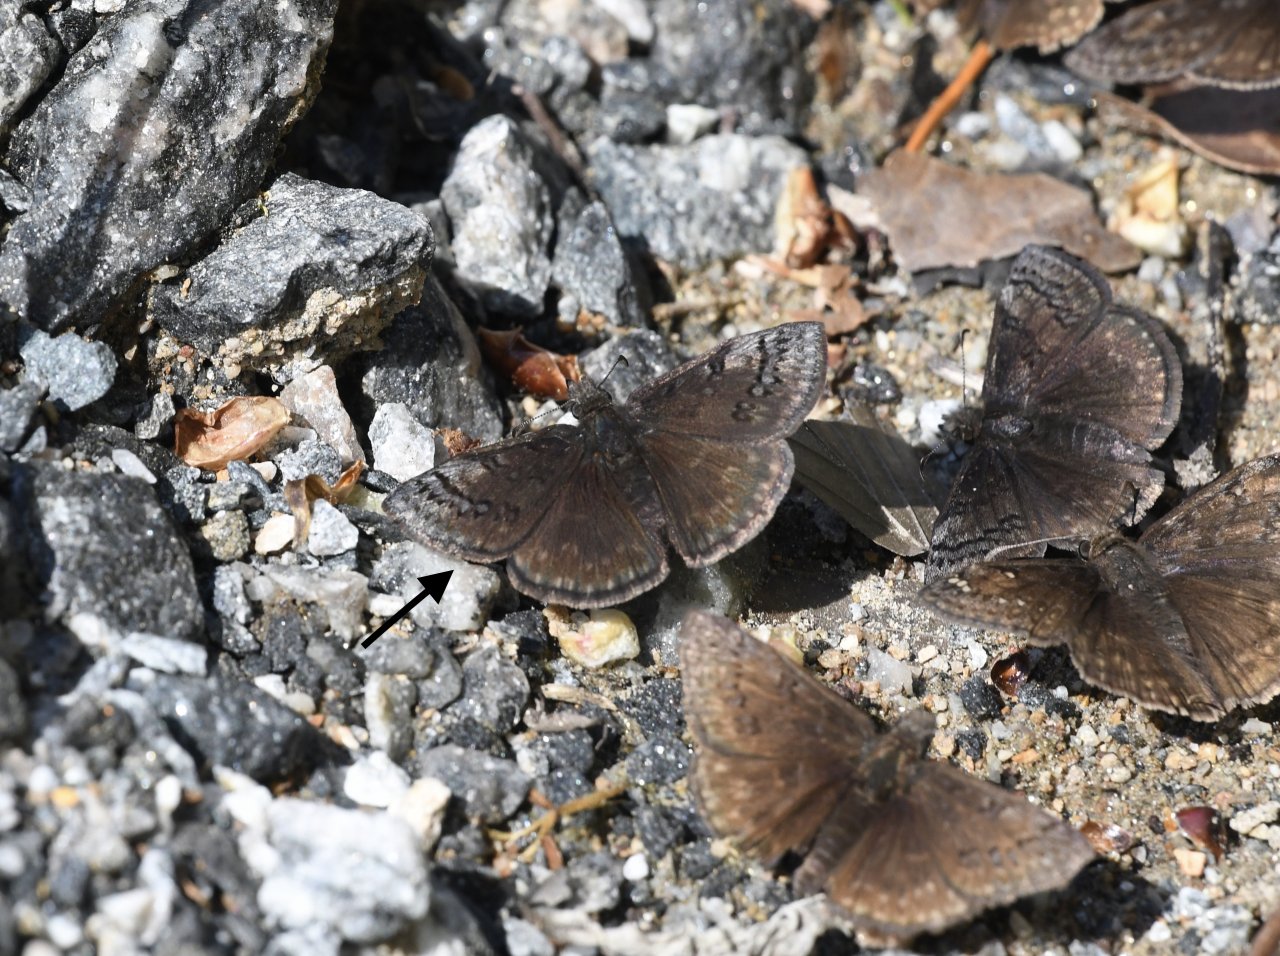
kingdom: Animalia
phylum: Arthropoda
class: Insecta
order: Lepidoptera
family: Hesperiidae
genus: Erynnis
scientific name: Erynnis brizo
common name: Sleepy Duskywing
